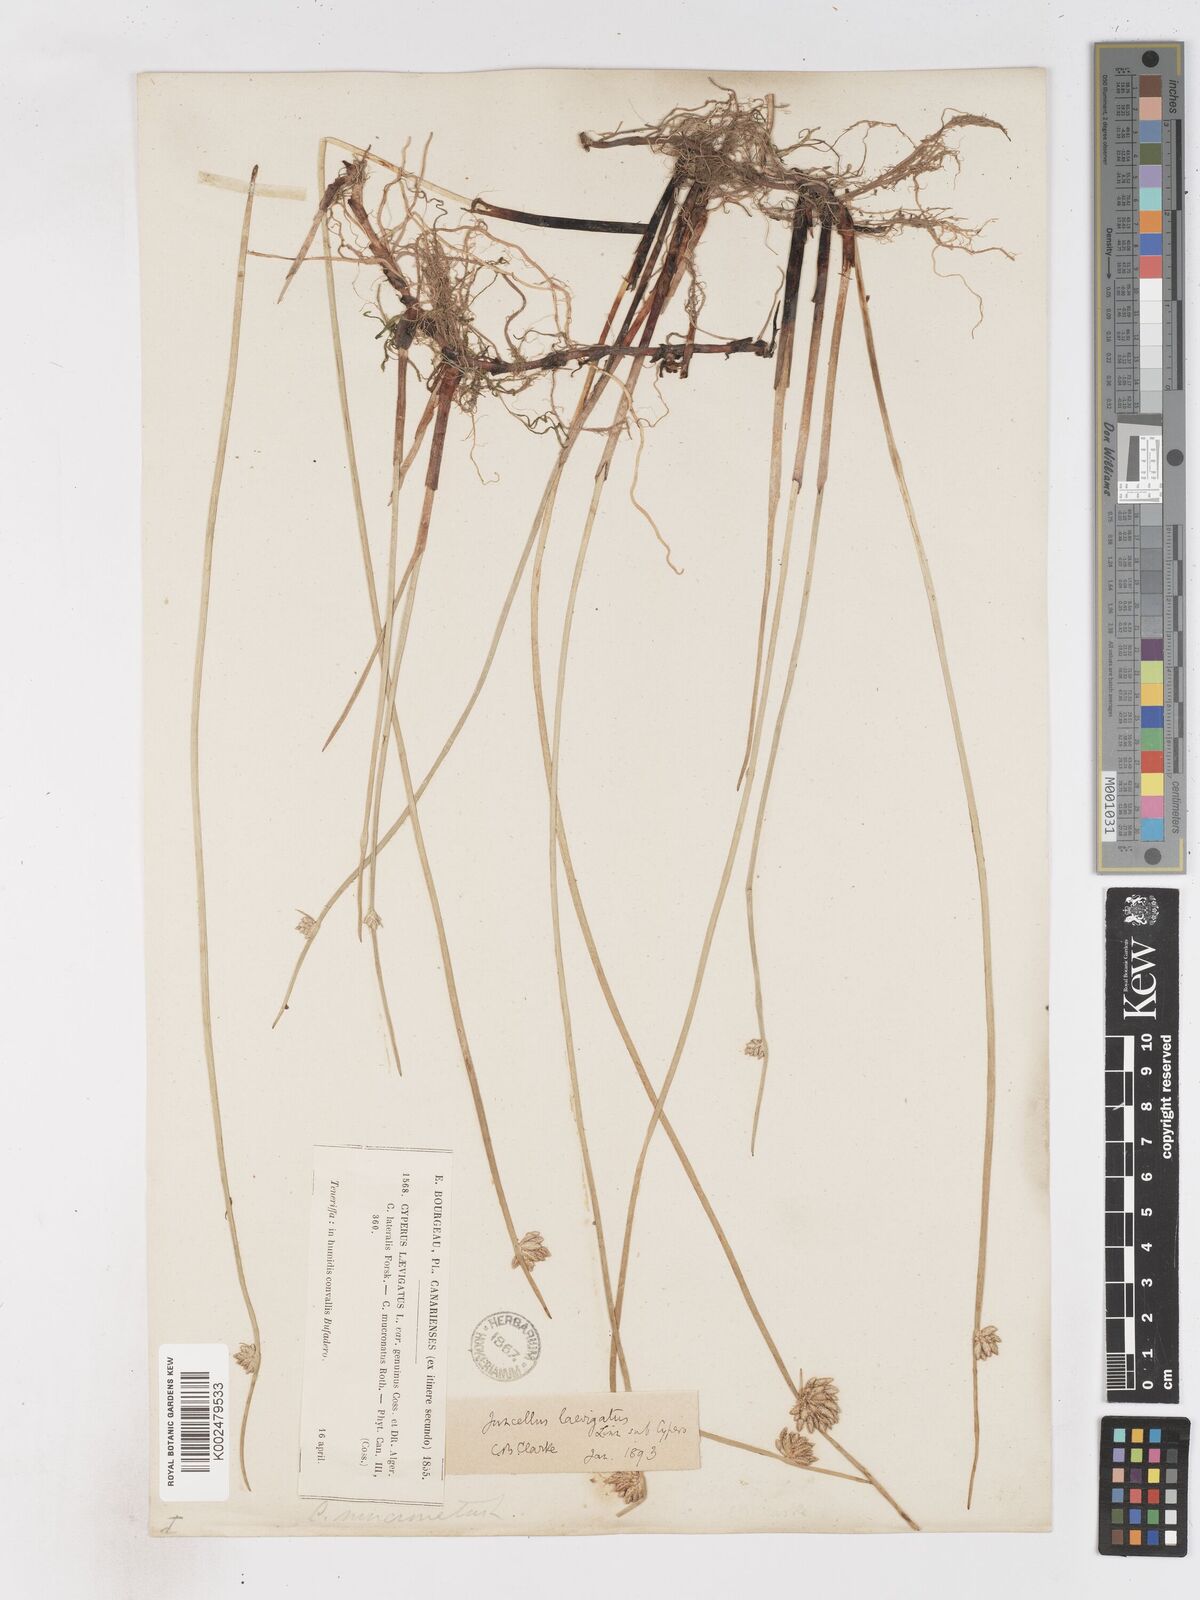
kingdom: Plantae
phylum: Tracheophyta
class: Liliopsida
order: Poales
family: Cyperaceae
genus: Cyperus
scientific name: Cyperus laevigatus
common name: Smooth flat sedge
